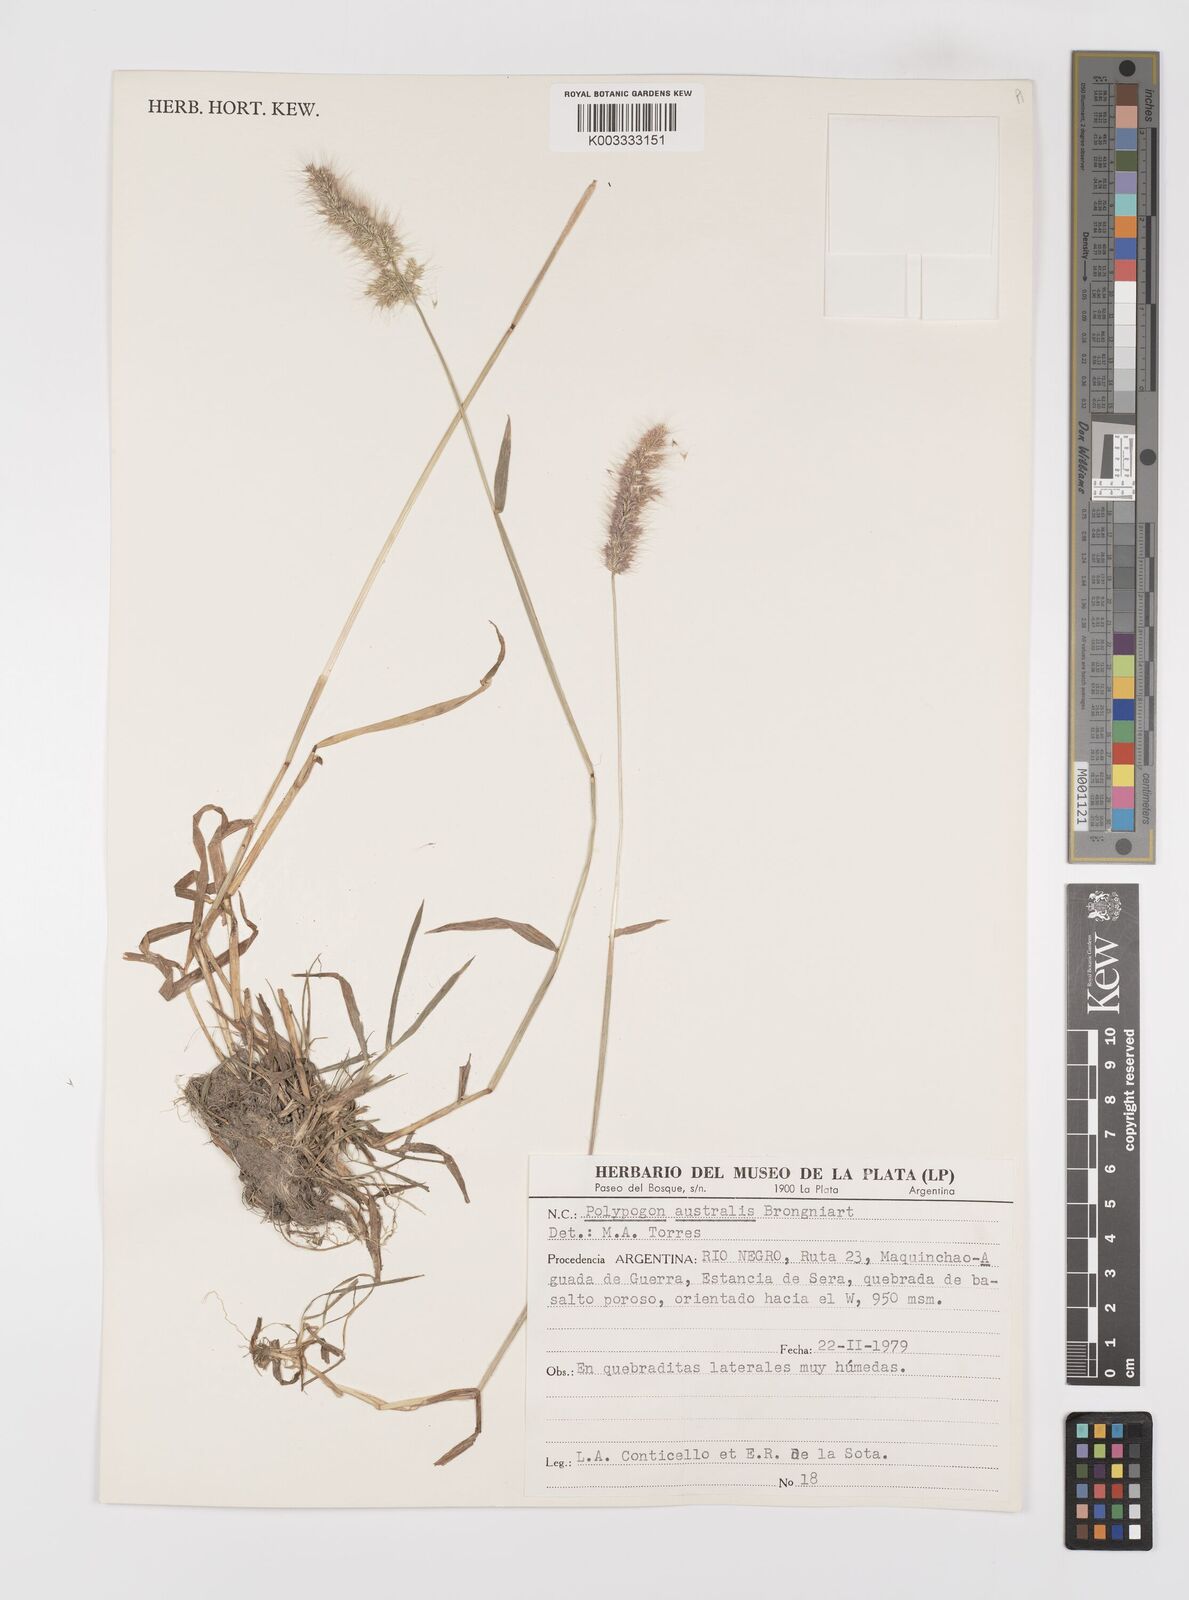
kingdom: Plantae
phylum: Tracheophyta
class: Liliopsida
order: Poales
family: Poaceae
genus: Polypogon
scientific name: Polypogon australis
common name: Chilean rabbitsfoot grass
